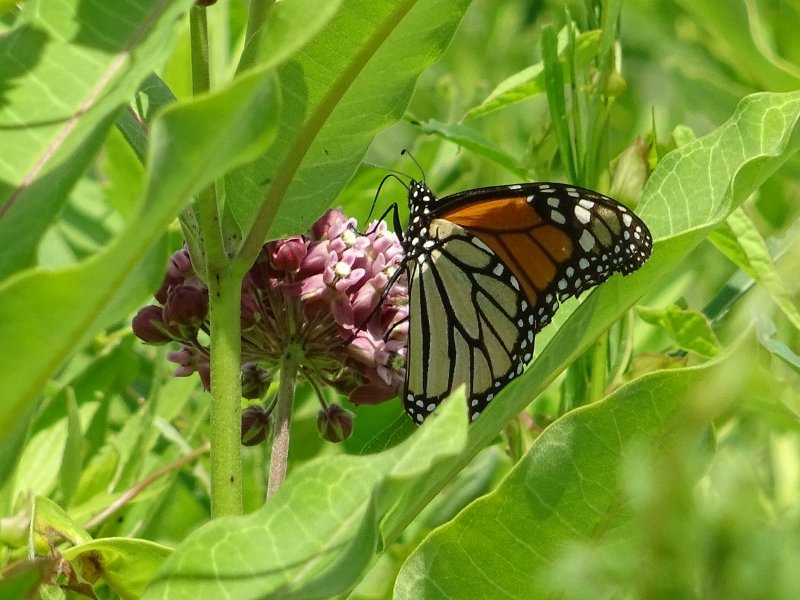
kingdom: Animalia
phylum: Arthropoda
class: Insecta
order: Lepidoptera
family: Nymphalidae
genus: Danaus
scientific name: Danaus plexippus
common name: Monarch
